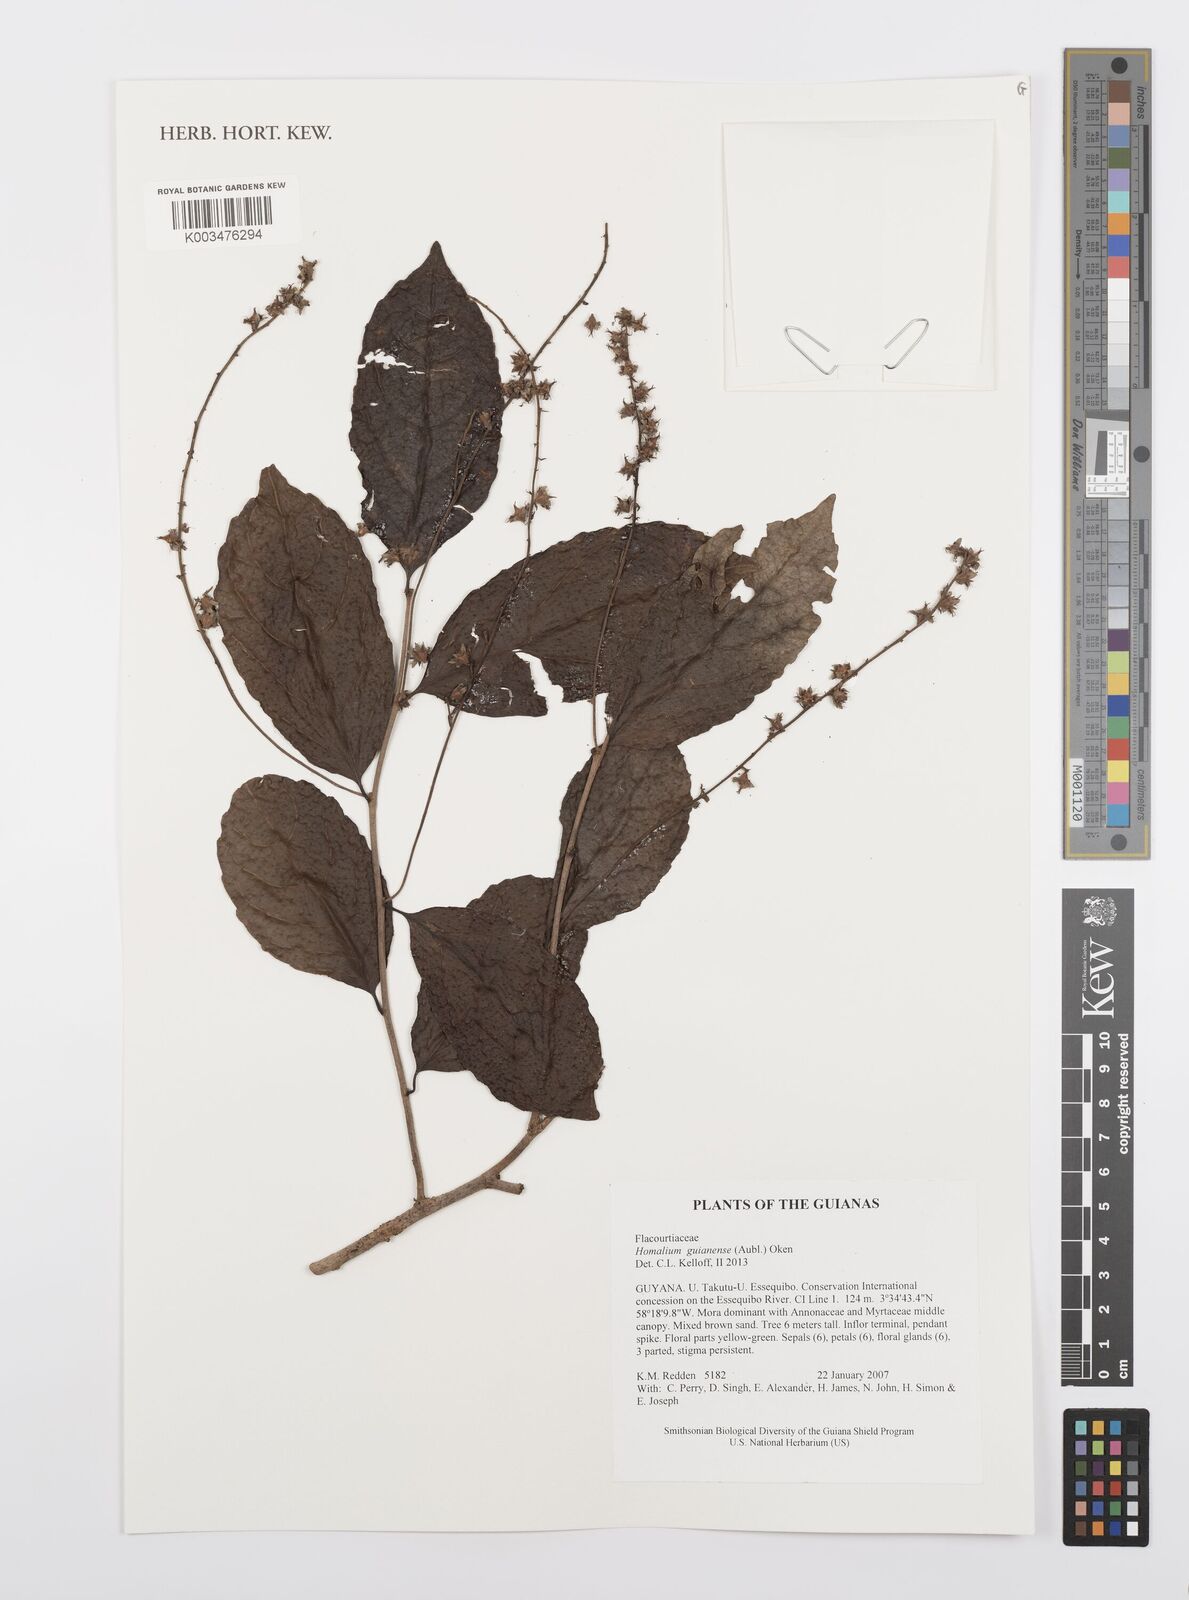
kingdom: Plantae
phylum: Tracheophyta
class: Magnoliopsida
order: Malpighiales
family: Salicaceae
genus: Homalium
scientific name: Homalium guianense
